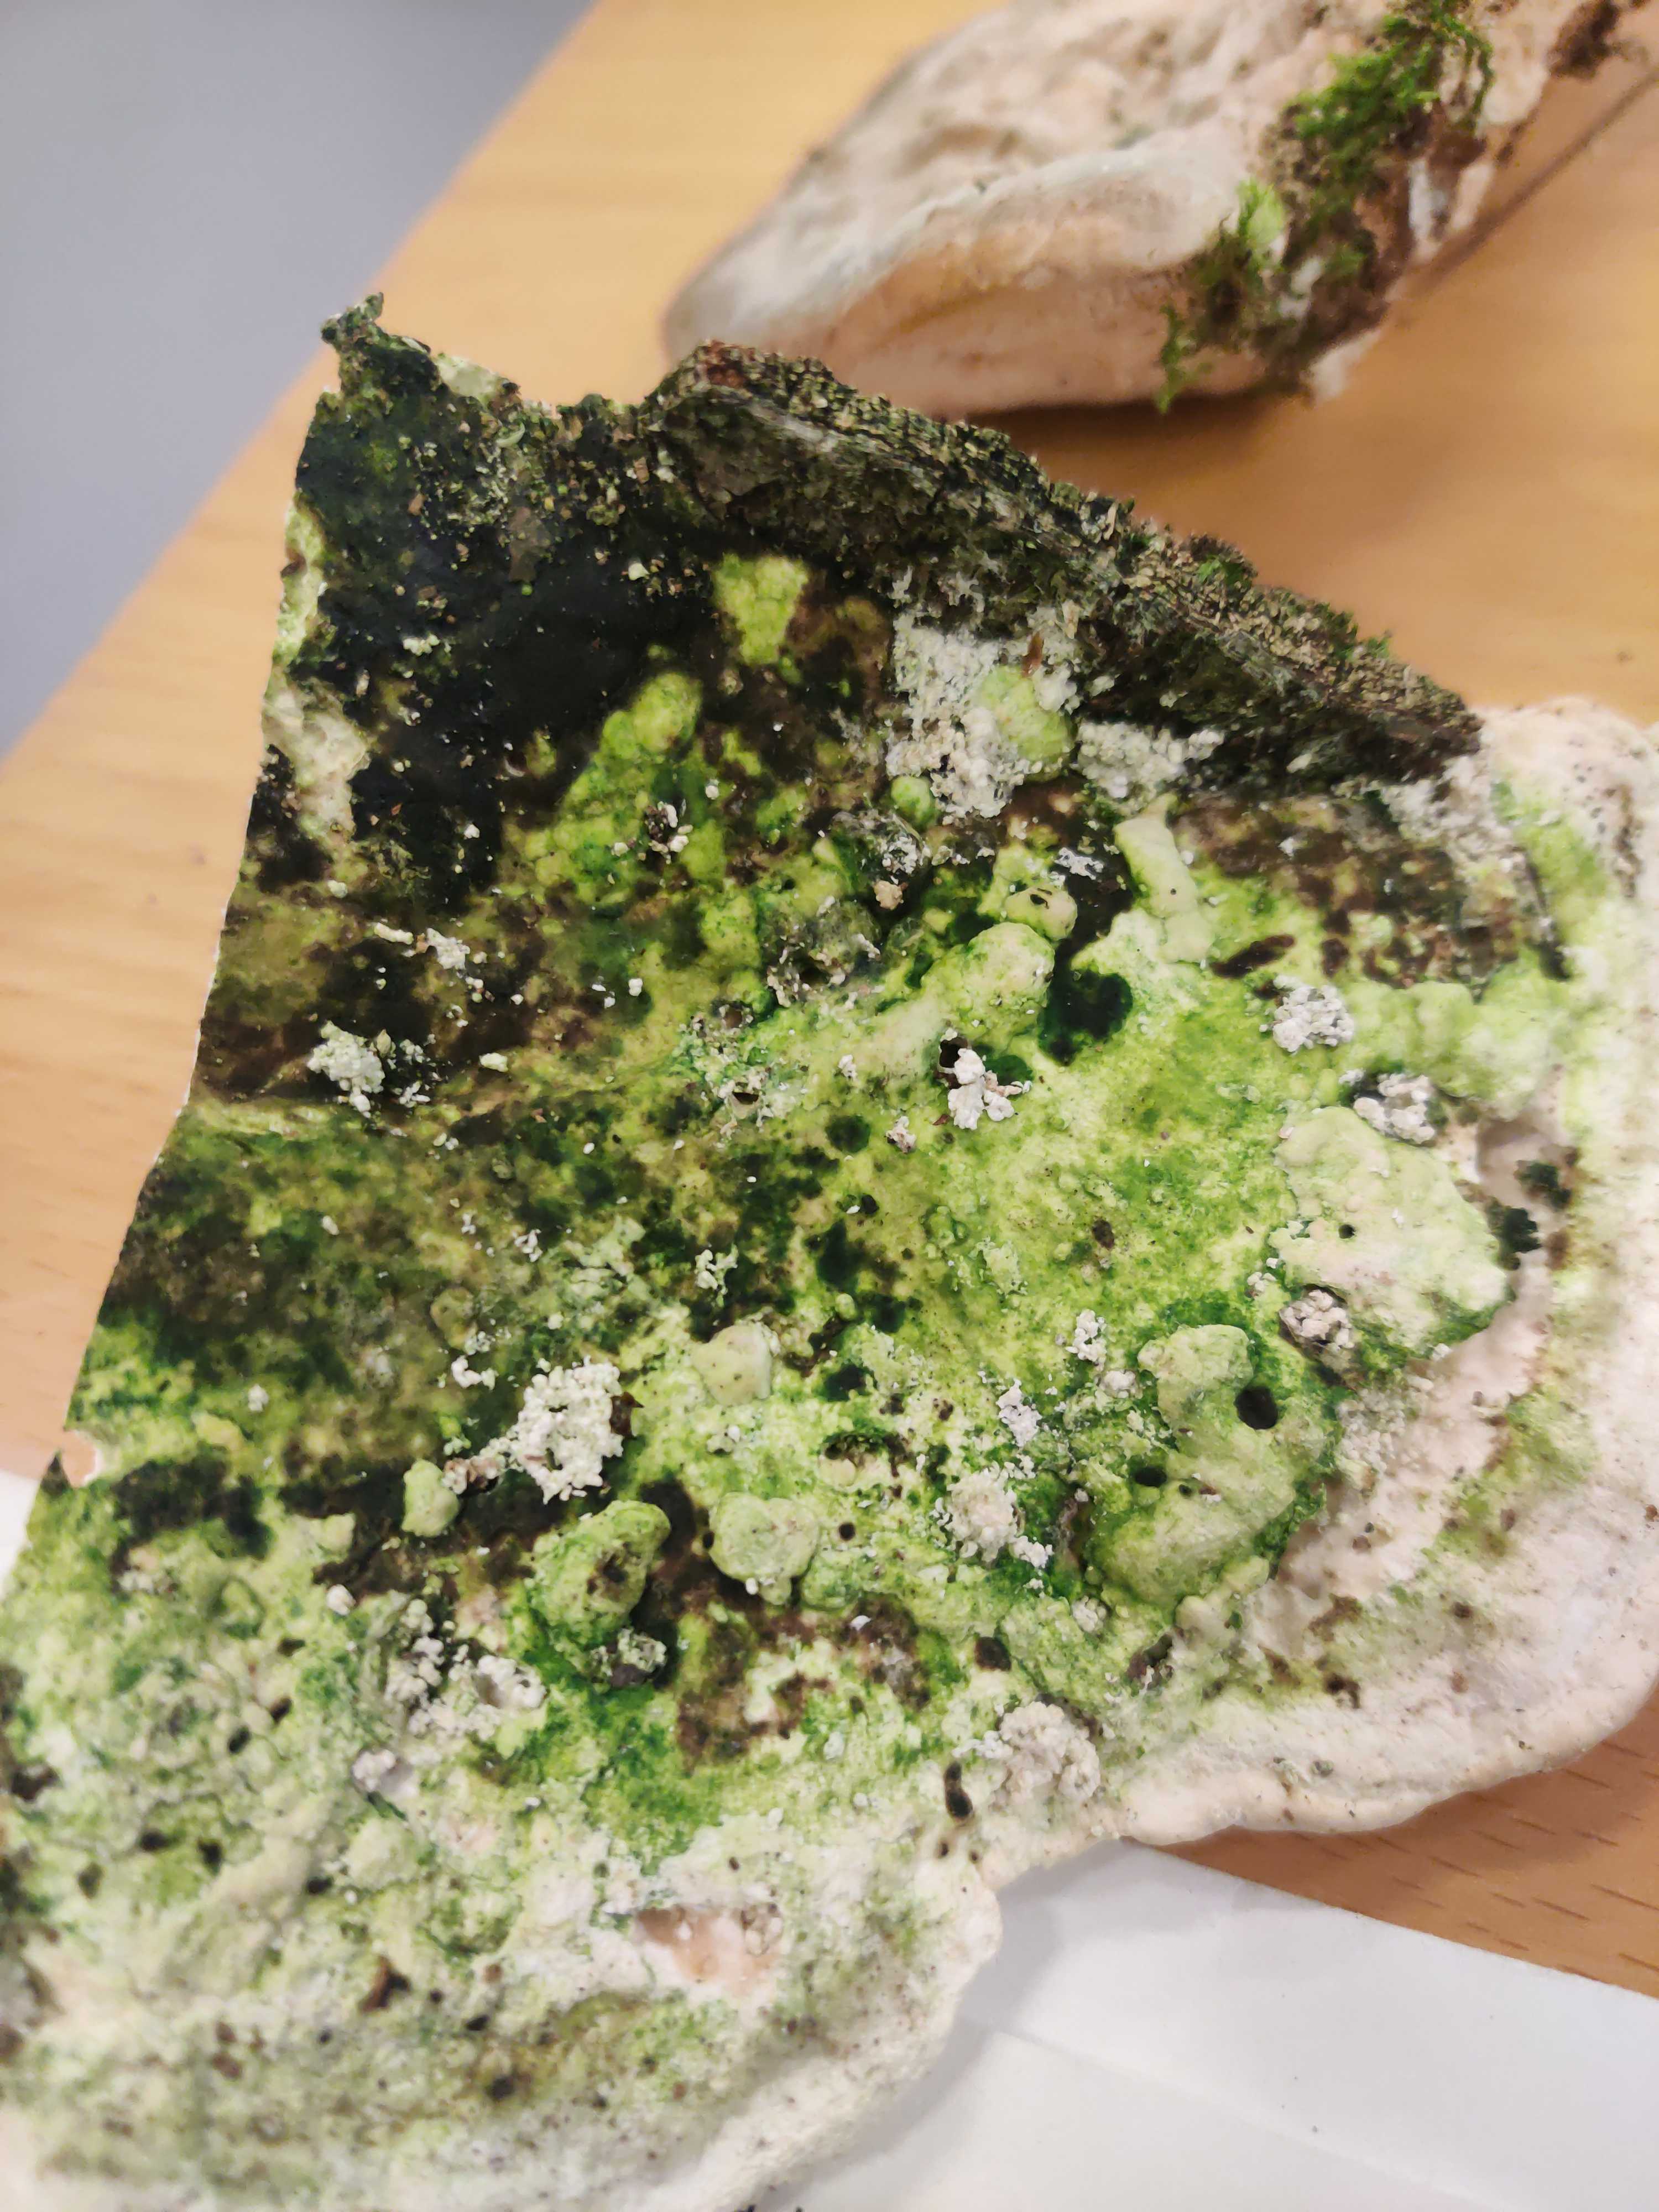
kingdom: Fungi
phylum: Basidiomycota
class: Agaricomycetes
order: Polyporales
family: Polyporaceae
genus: Trametes
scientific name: Trametes gibbosa
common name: puklet læderporesvamp
